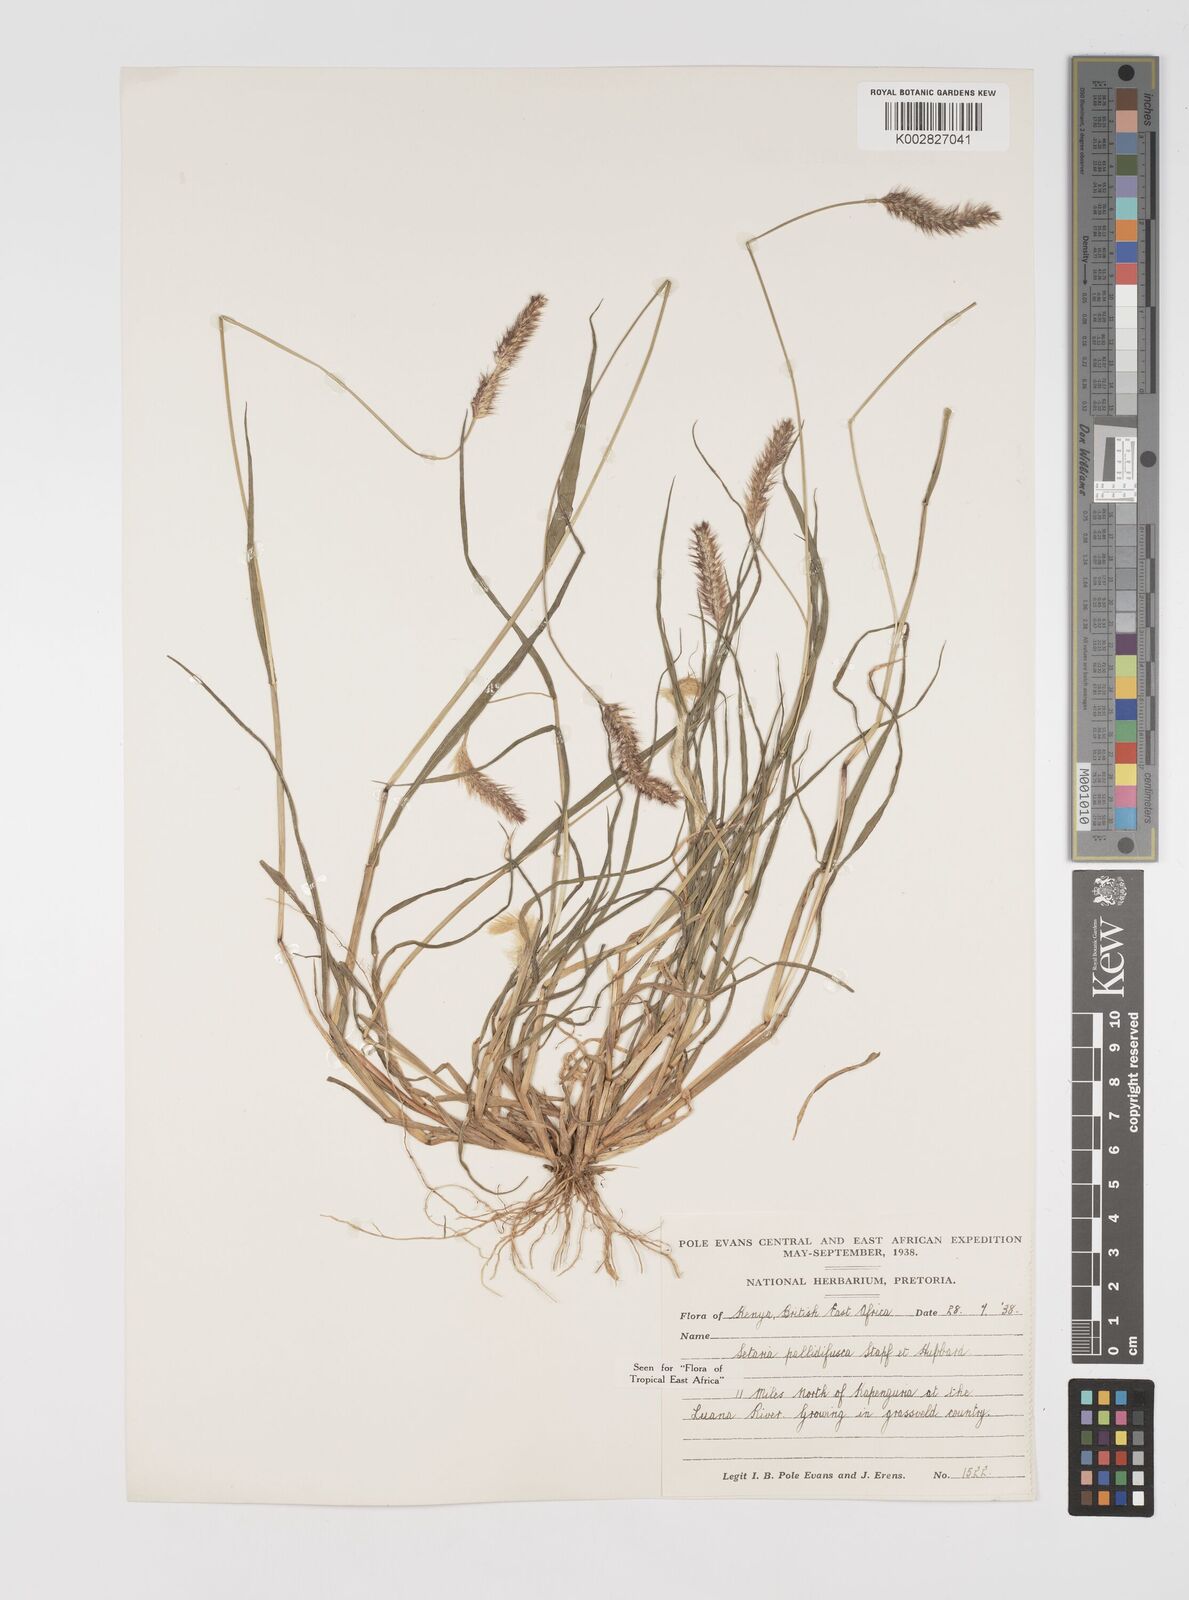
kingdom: Plantae
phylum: Tracheophyta
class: Liliopsida
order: Poales
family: Poaceae
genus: Setaria
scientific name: Setaria pumila
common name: Yellow bristle-grass
